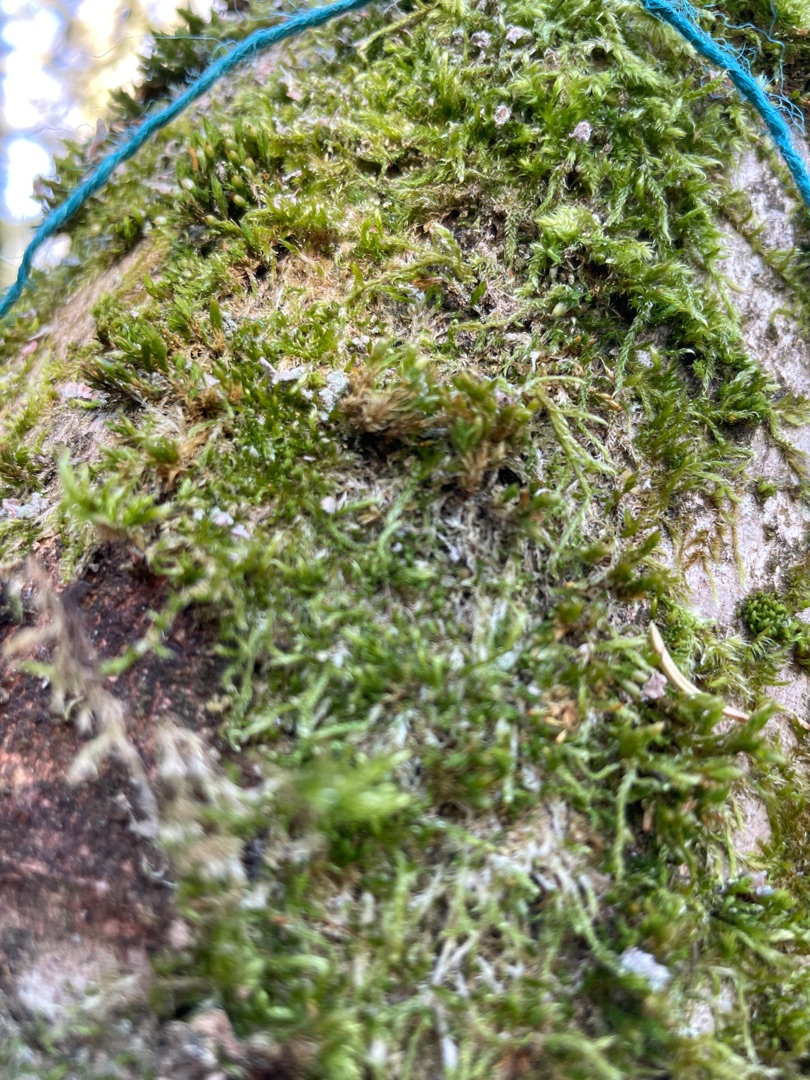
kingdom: Plantae
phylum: Bryophyta
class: Bryopsida
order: Hypnales
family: Hypnaceae
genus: Hypnum
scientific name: Hypnum
